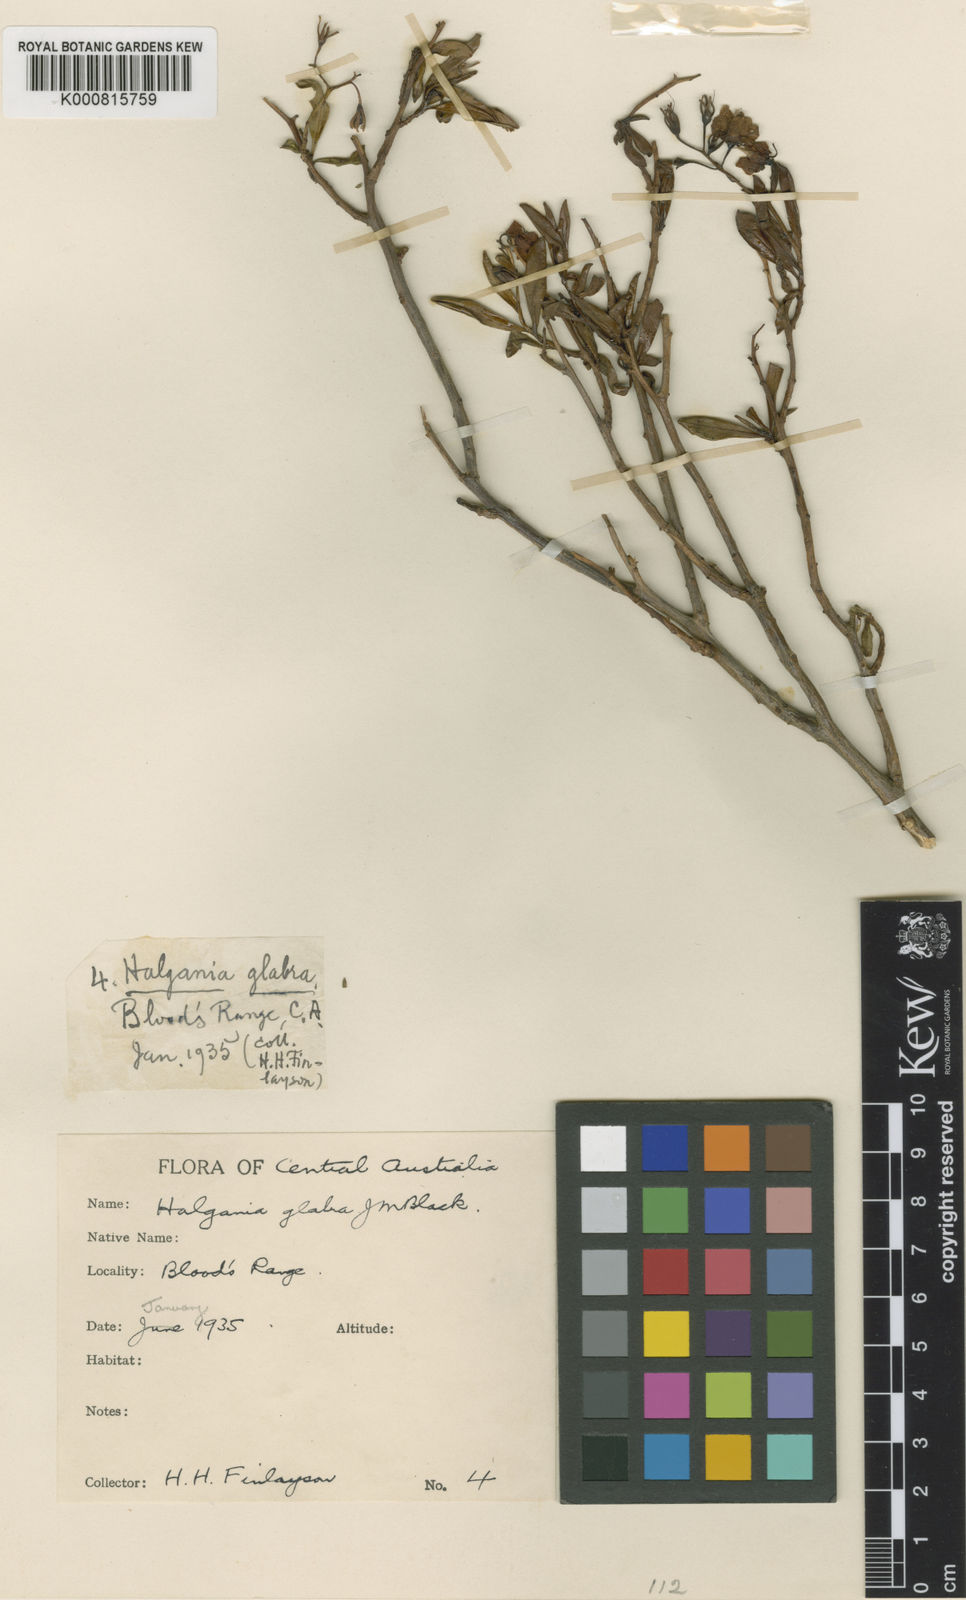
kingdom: Plantae
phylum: Tracheophyta
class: Magnoliopsida
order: Boraginales
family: Ehretiaceae
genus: Halgania
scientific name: Halgania glabra
